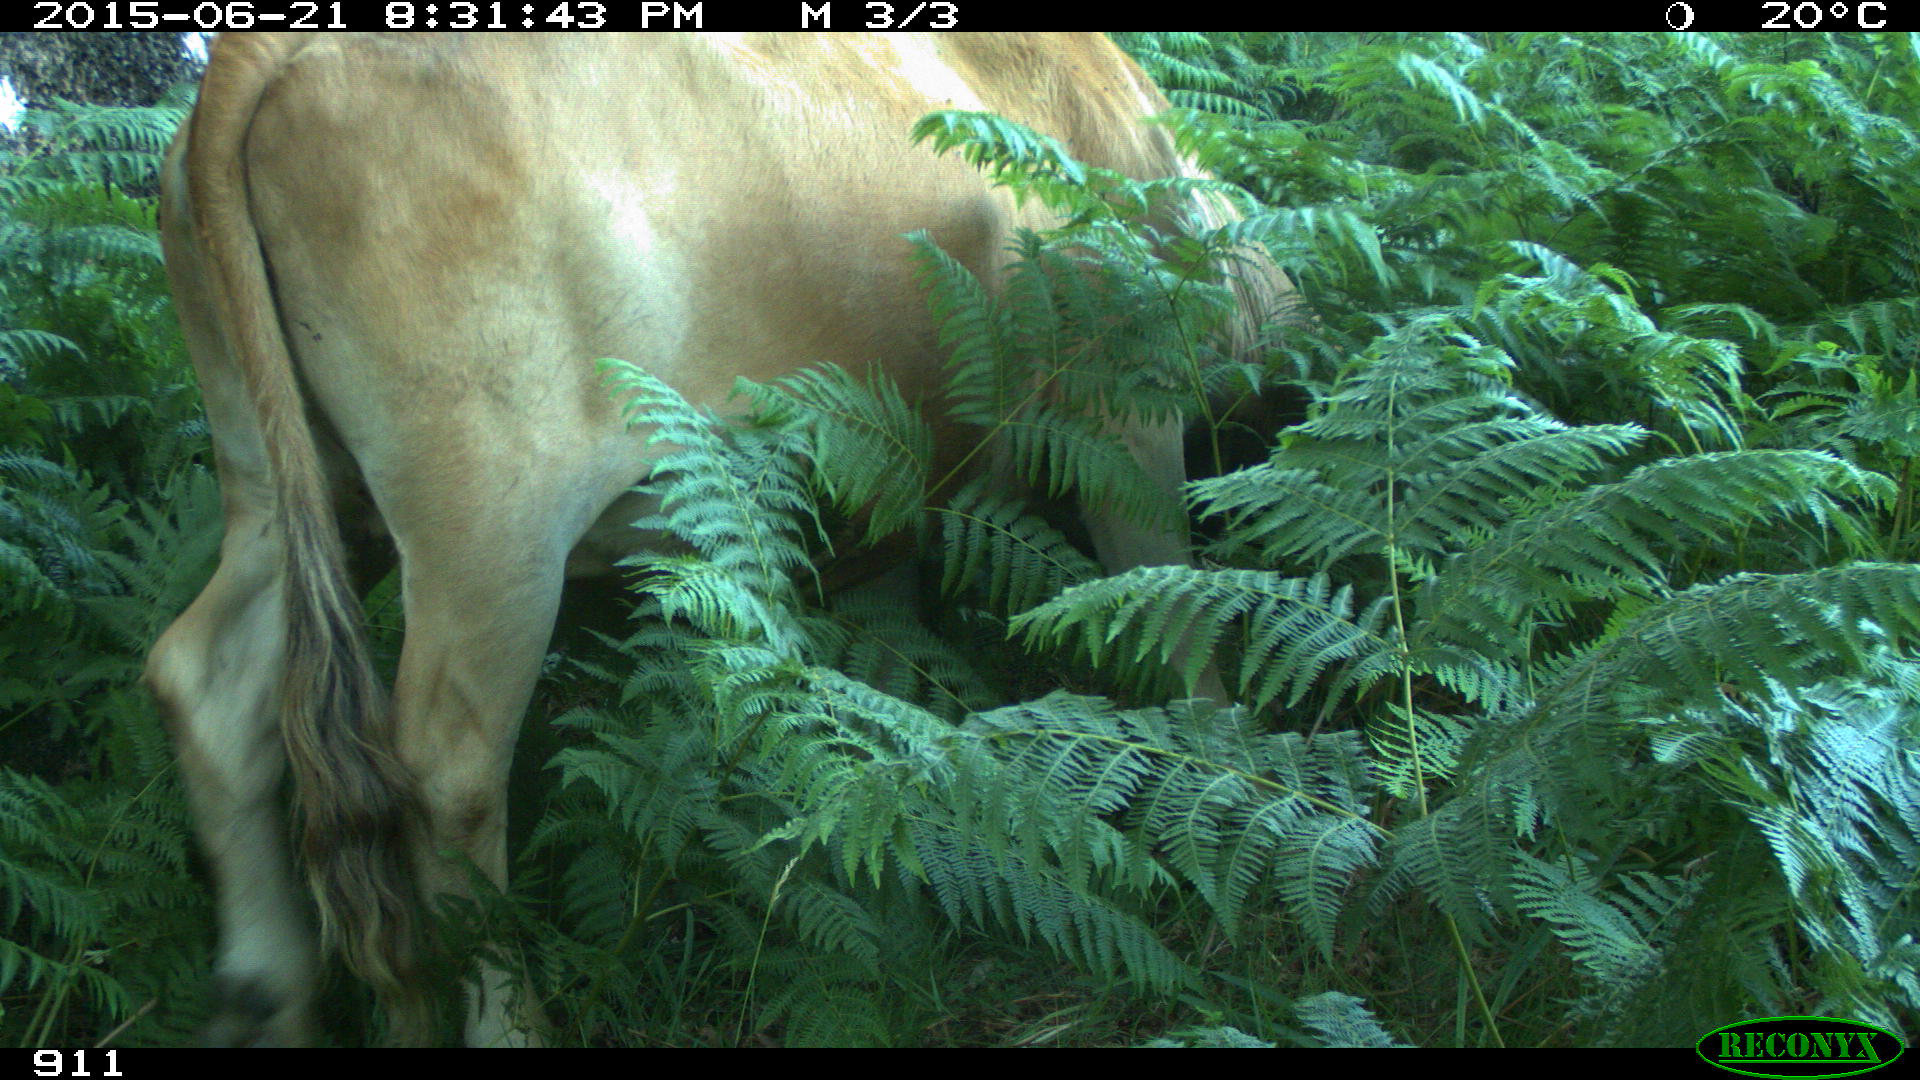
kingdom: Animalia
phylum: Chordata
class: Mammalia
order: Artiodactyla
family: Bovidae
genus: Bos
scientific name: Bos taurus
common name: Domesticated cattle
